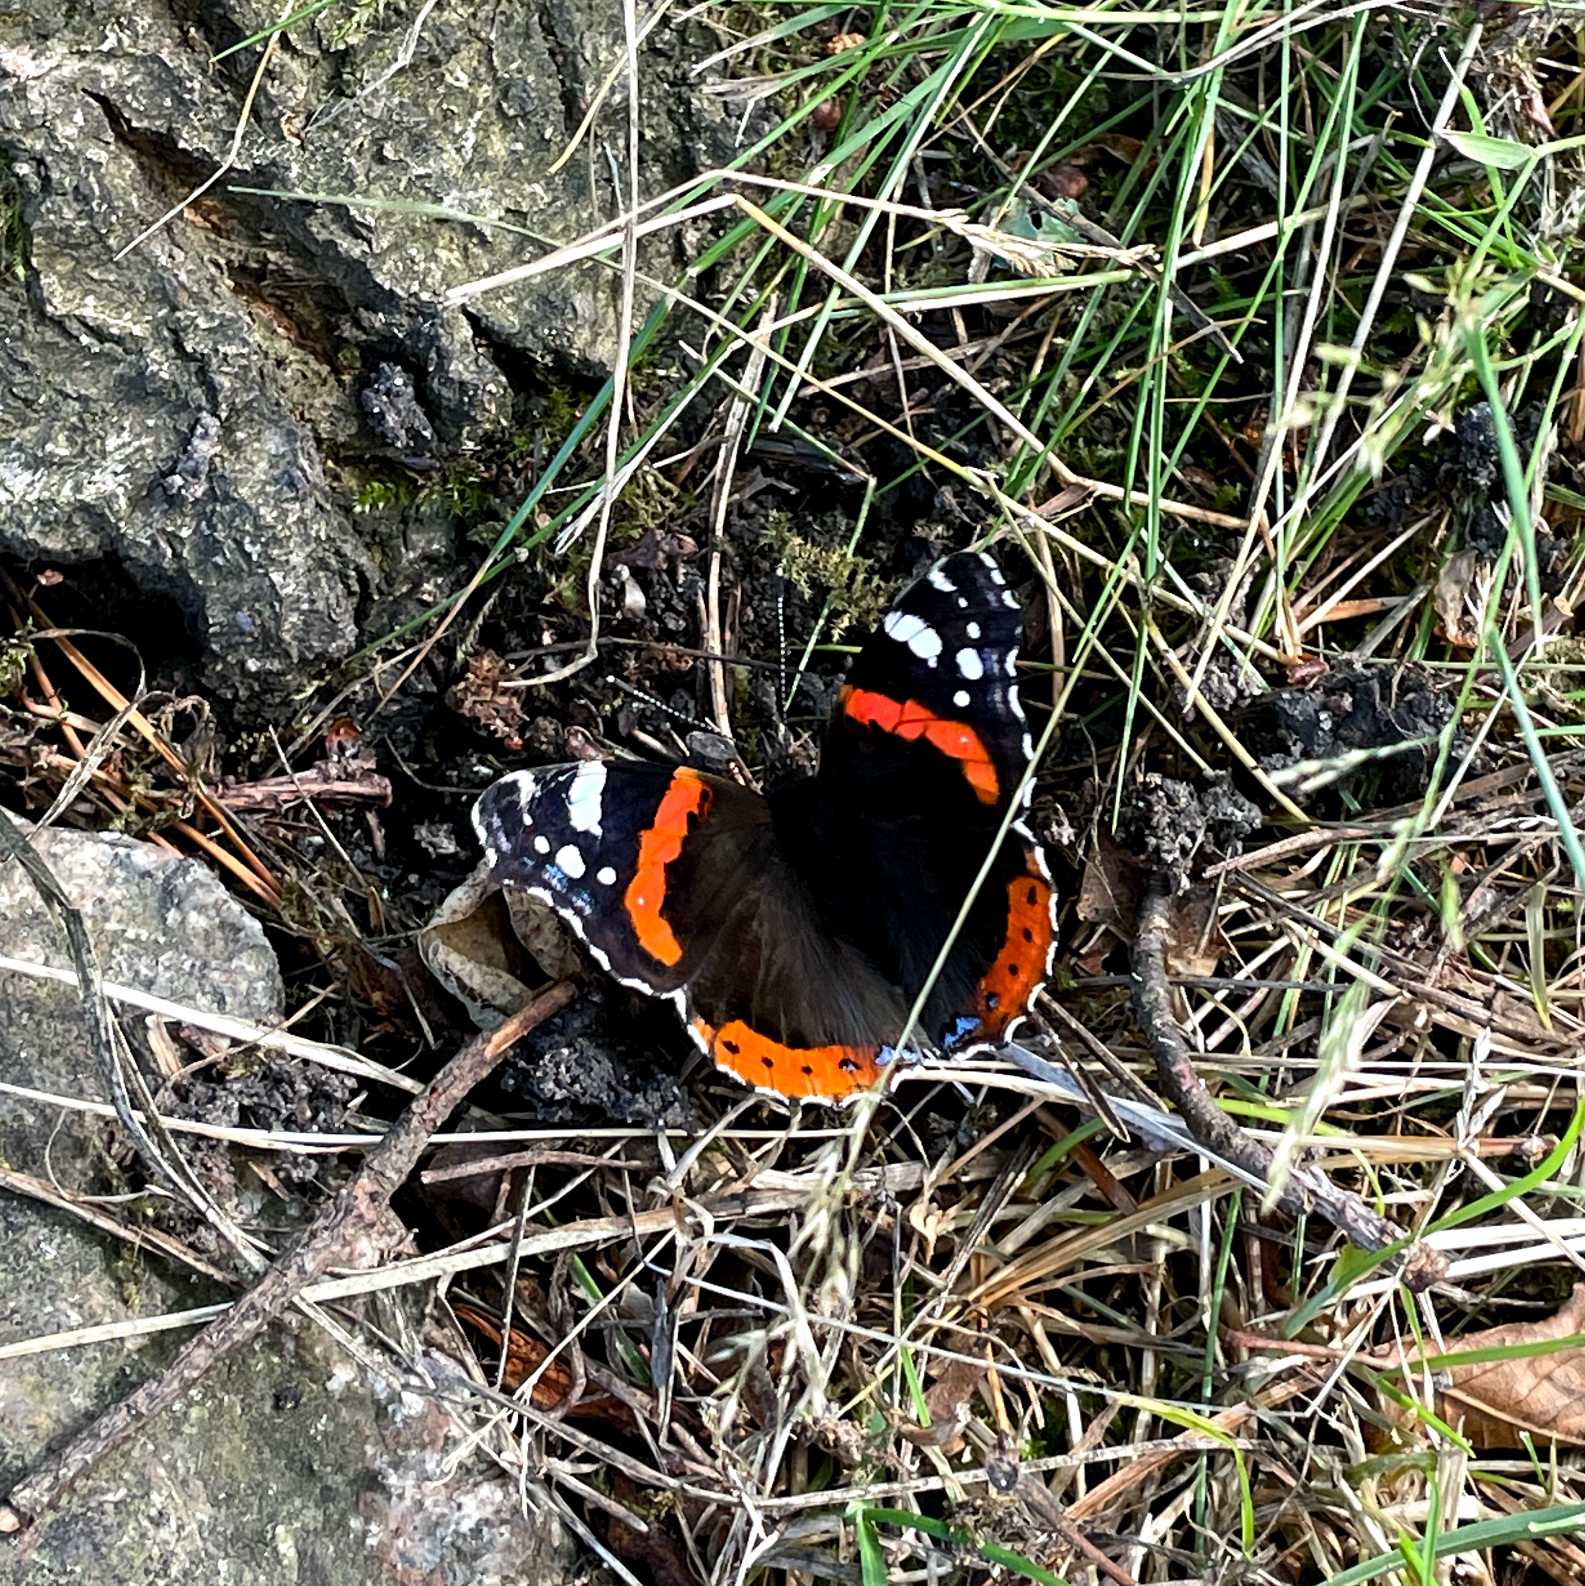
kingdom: Animalia
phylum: Arthropoda
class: Insecta
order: Lepidoptera
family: Nymphalidae
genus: Vanessa
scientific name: Vanessa atalanta
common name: Admiral
